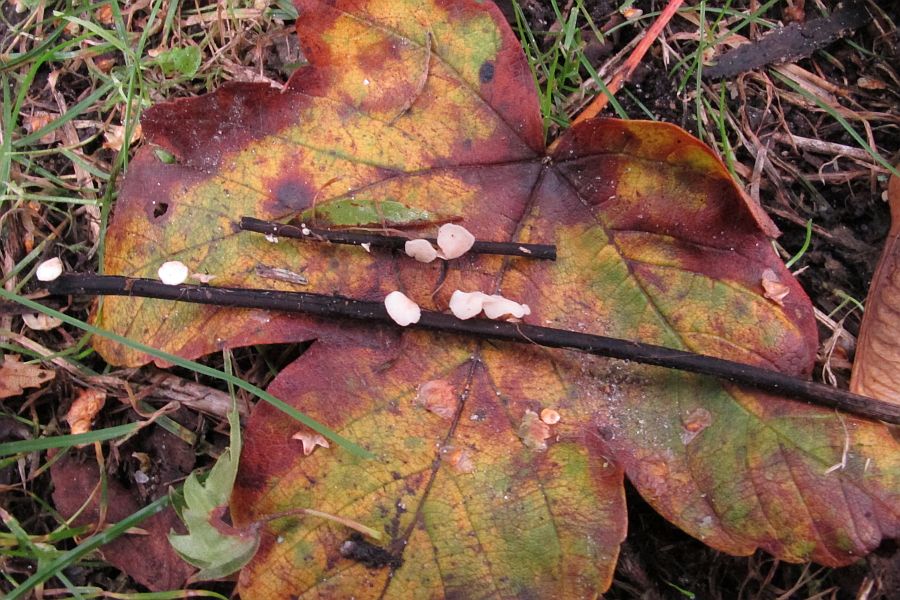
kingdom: Fungi
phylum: Ascomycota
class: Leotiomycetes
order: Helotiales
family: Helotiaceae
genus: Hymenoscyphus
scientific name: Hymenoscyphus fraxineus
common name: asketoptørre-stilkskive
